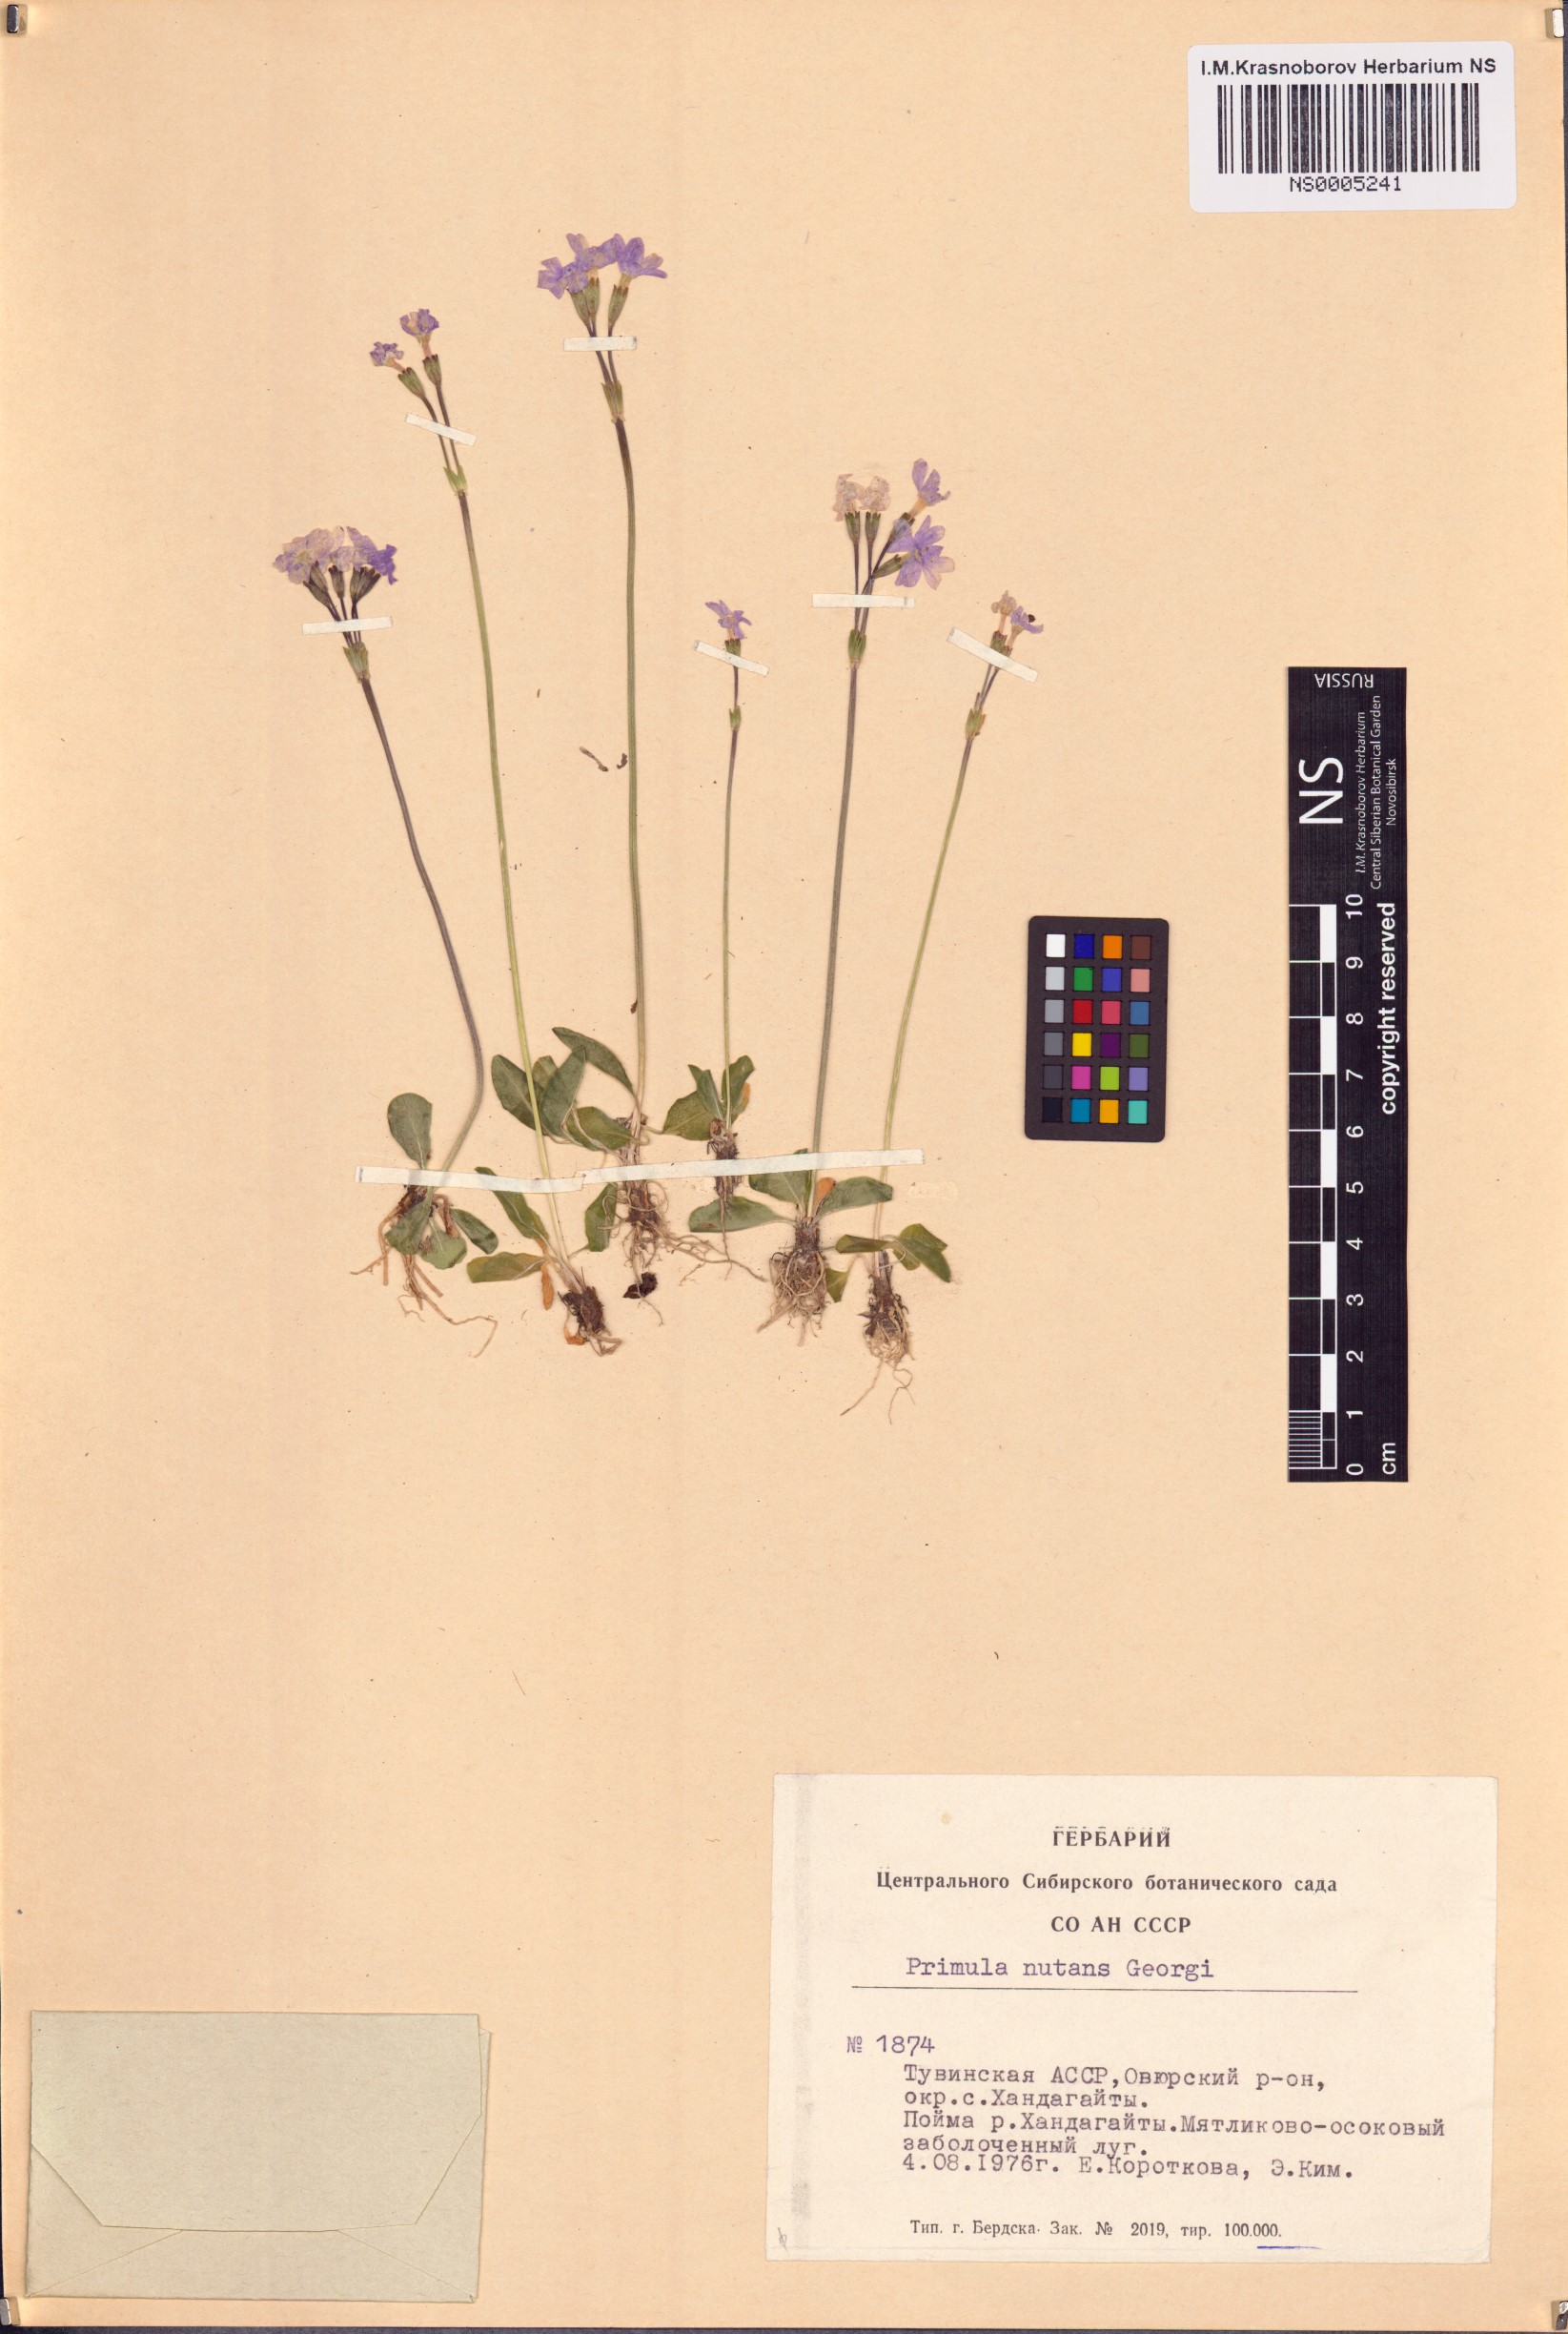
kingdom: Plantae
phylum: Tracheophyta
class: Magnoliopsida
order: Ericales
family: Primulaceae
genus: Primula
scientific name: Primula nutans
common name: Siberian primrose
